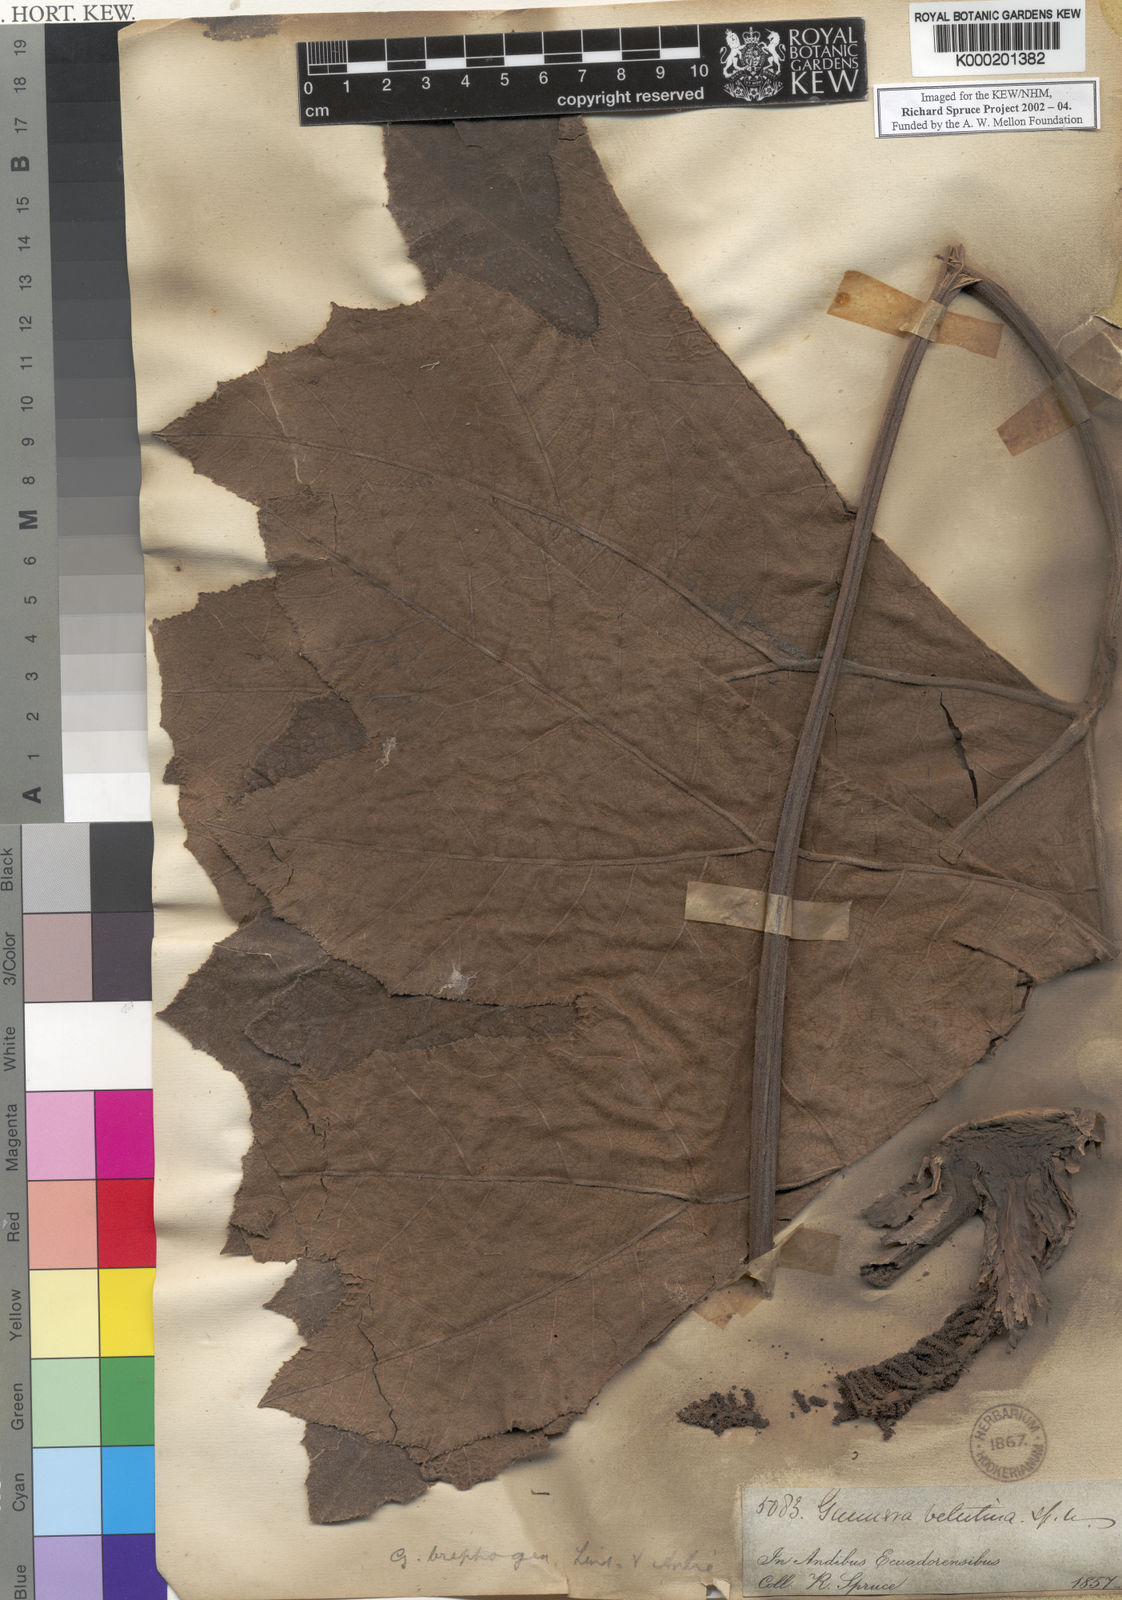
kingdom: Plantae
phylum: Tracheophyta
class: Magnoliopsida
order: Gunnerales
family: Gunneraceae
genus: Gunnera
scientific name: Gunnera
